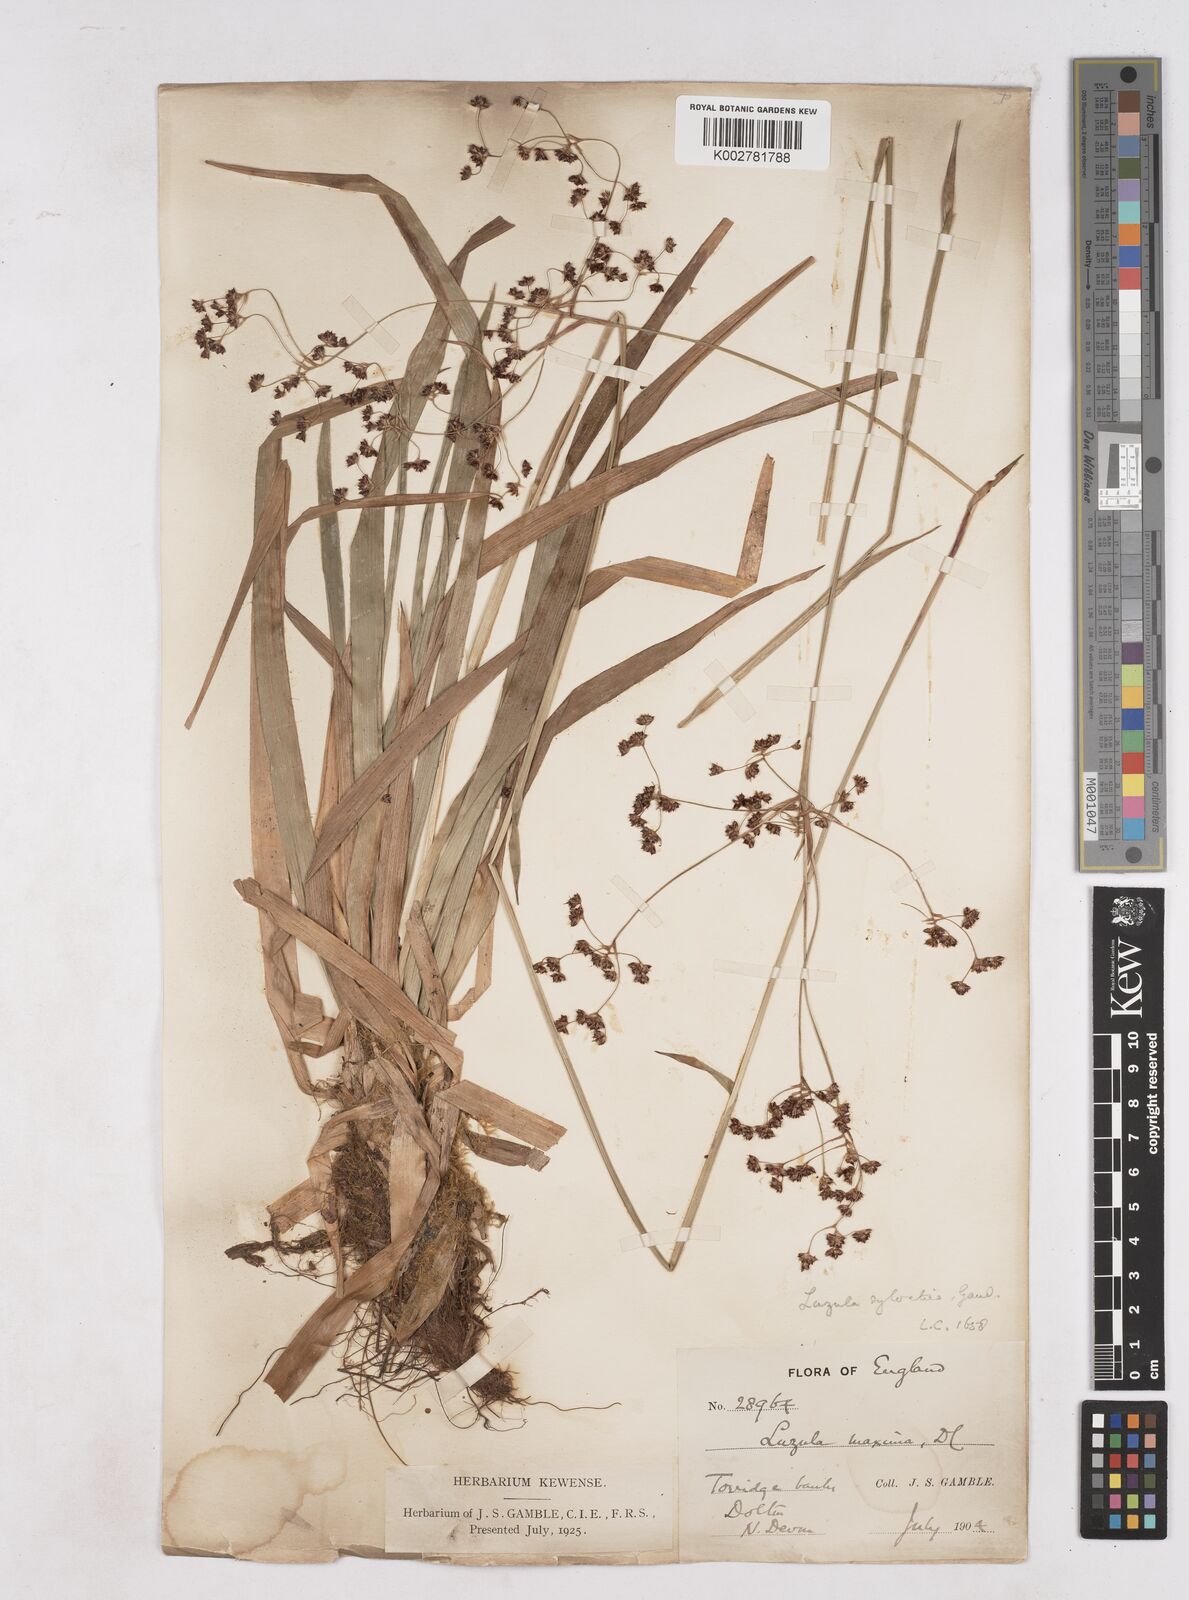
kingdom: Plantae
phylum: Tracheophyta
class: Liliopsida
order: Poales
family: Juncaceae
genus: Luzula
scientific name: Luzula sylvatica
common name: Great wood-rush
